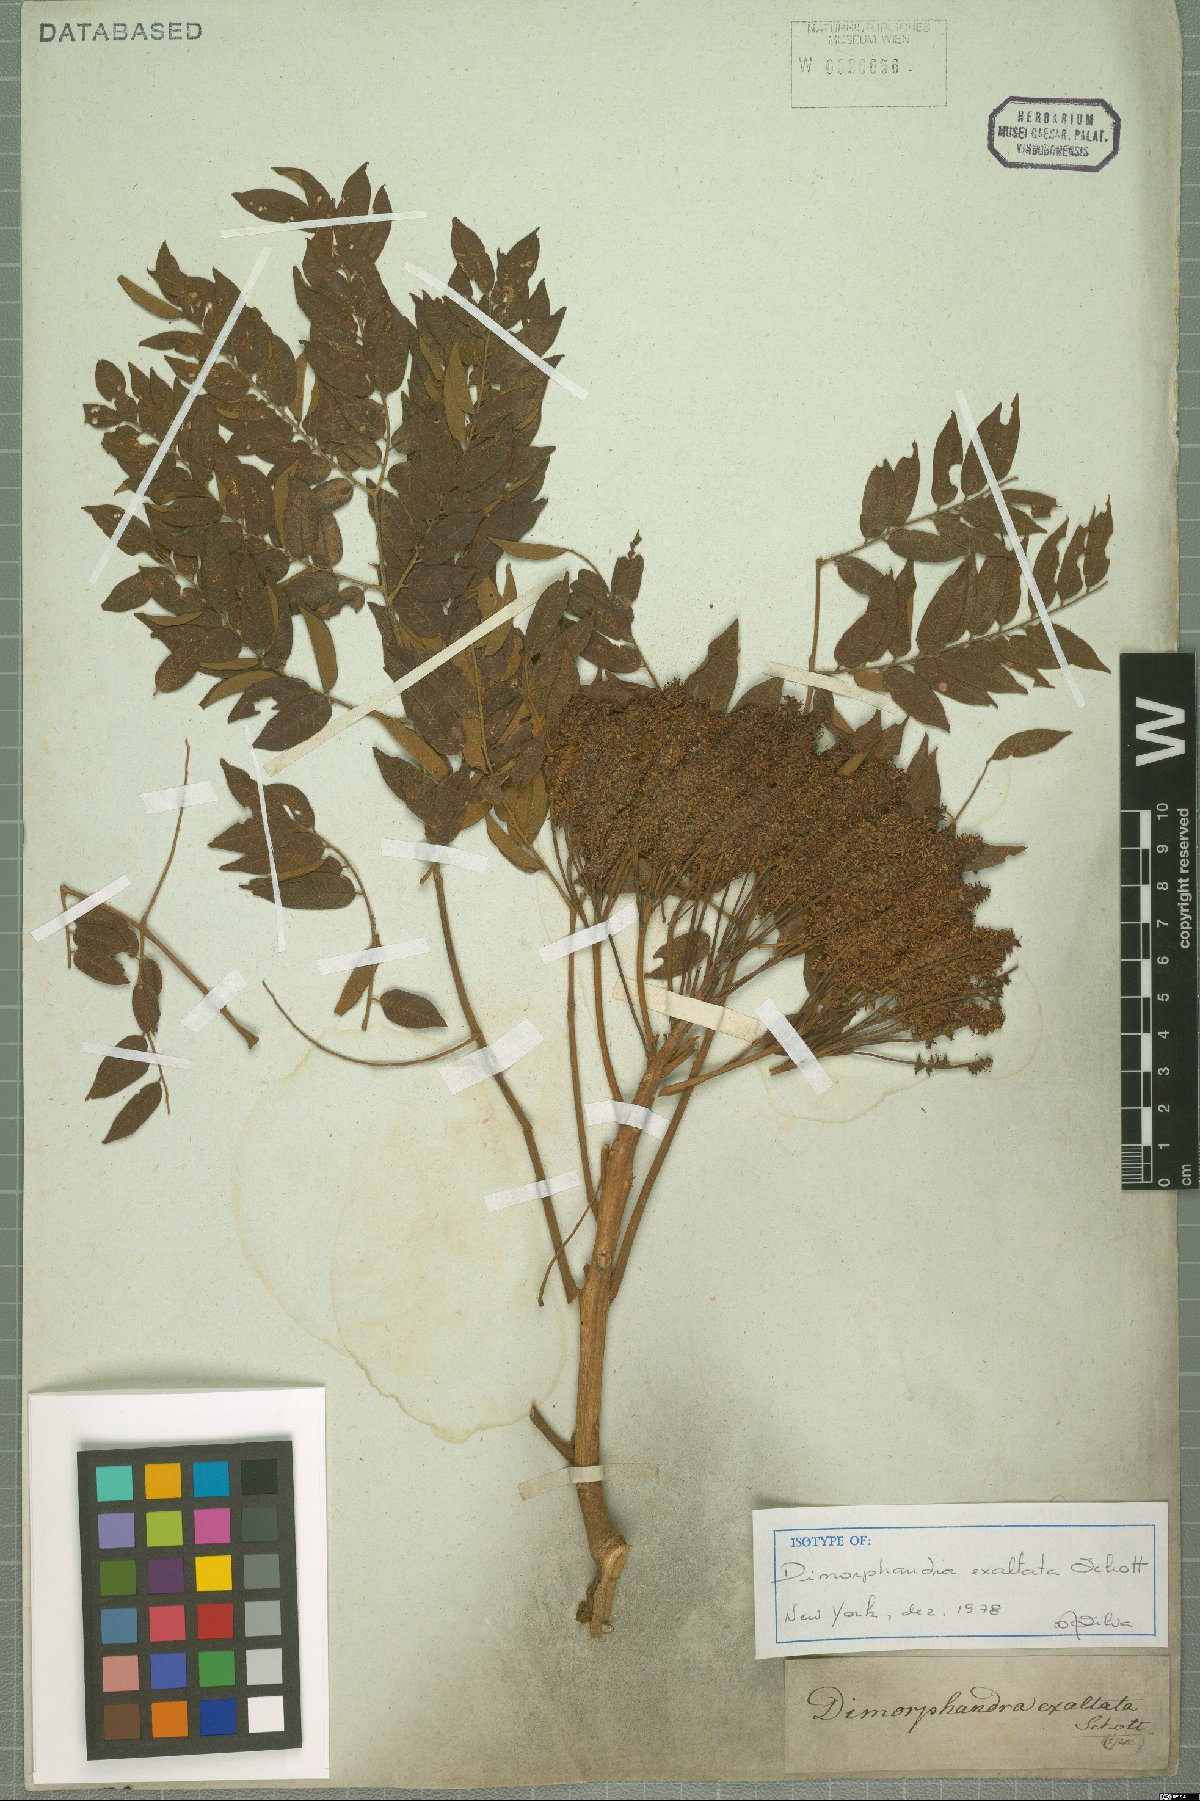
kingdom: Plantae
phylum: Tracheophyta
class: Magnoliopsida
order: Fabales
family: Fabaceae
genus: Dimorphandra
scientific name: Dimorphandra exaltata
